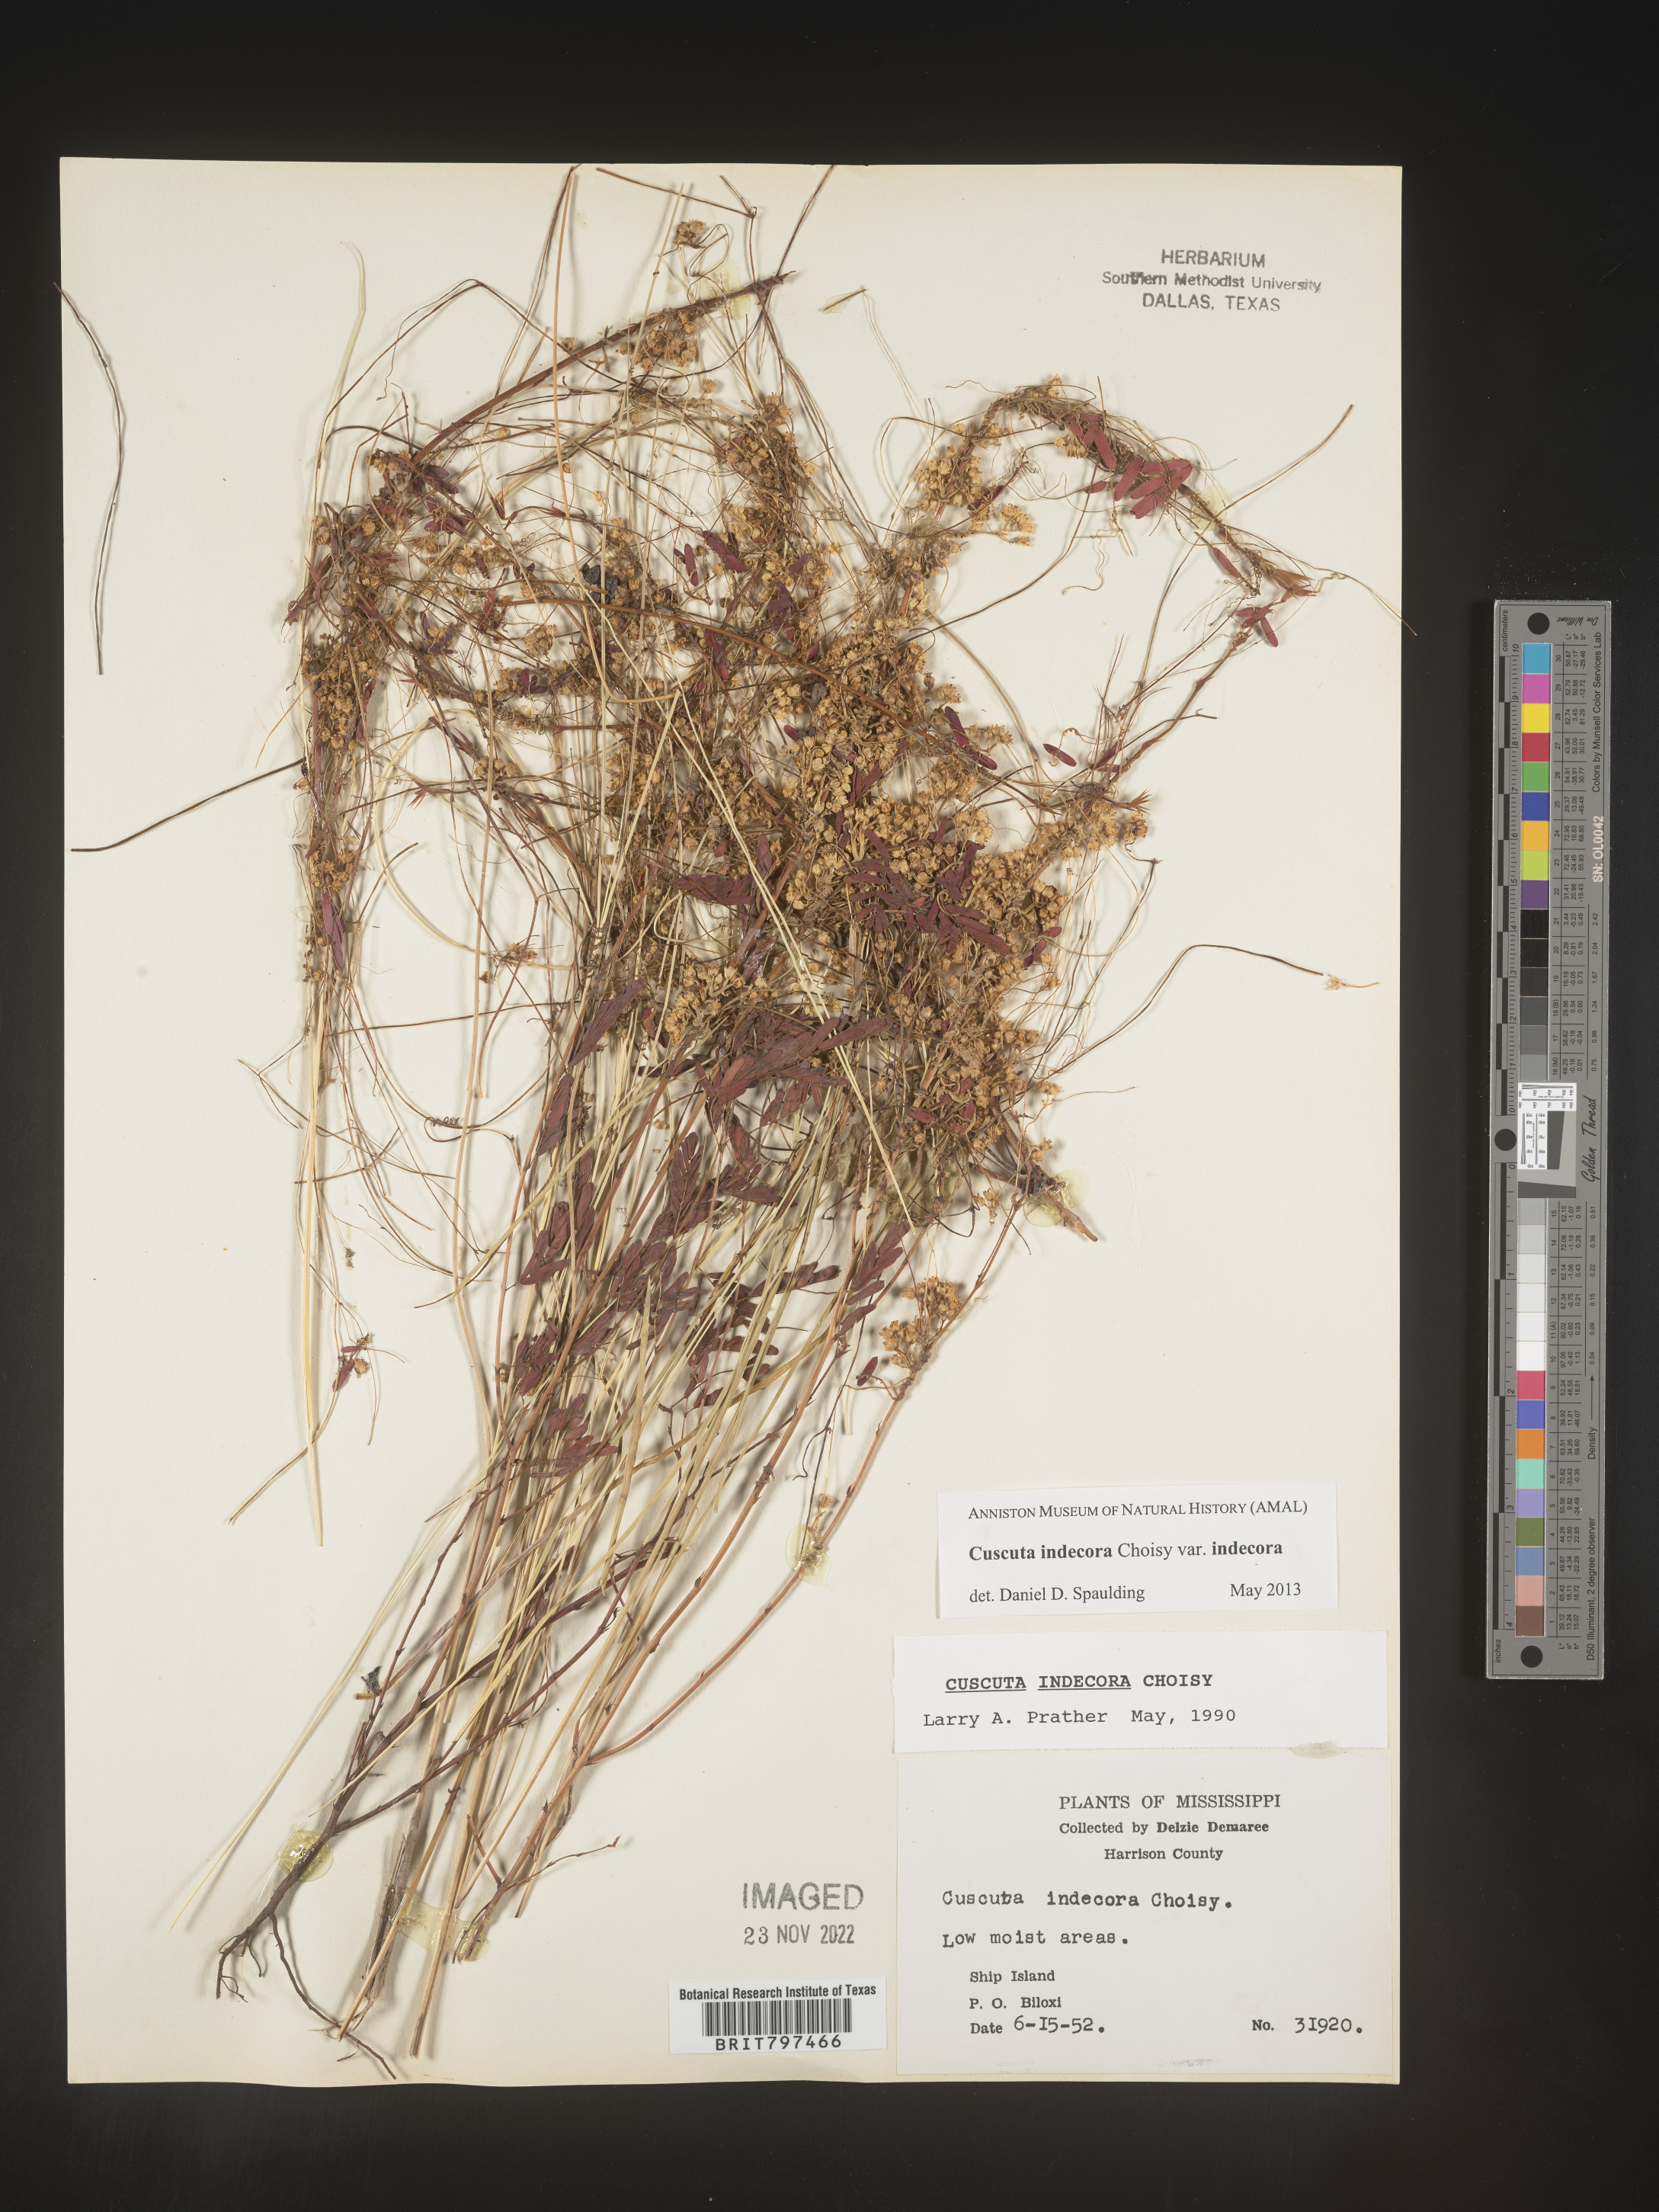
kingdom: Plantae
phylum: Tracheophyta
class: Magnoliopsida
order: Solanales
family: Convolvulaceae
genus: Cuscuta
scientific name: Cuscuta indecora
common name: Large-seed dodder
